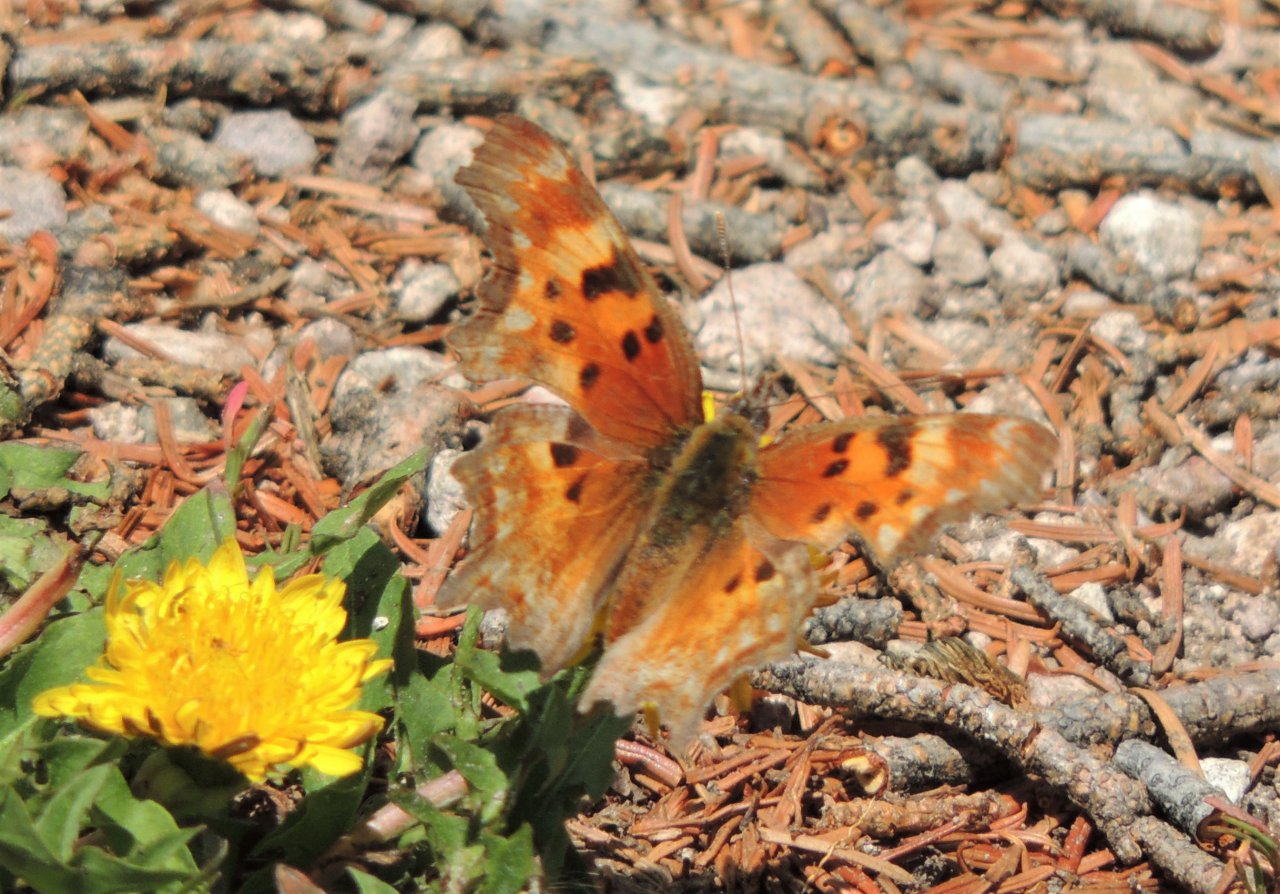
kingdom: Animalia
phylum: Arthropoda
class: Insecta
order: Lepidoptera
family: Nymphalidae
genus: Polygonia
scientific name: Polygonia gracilis
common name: Hoary Comma
